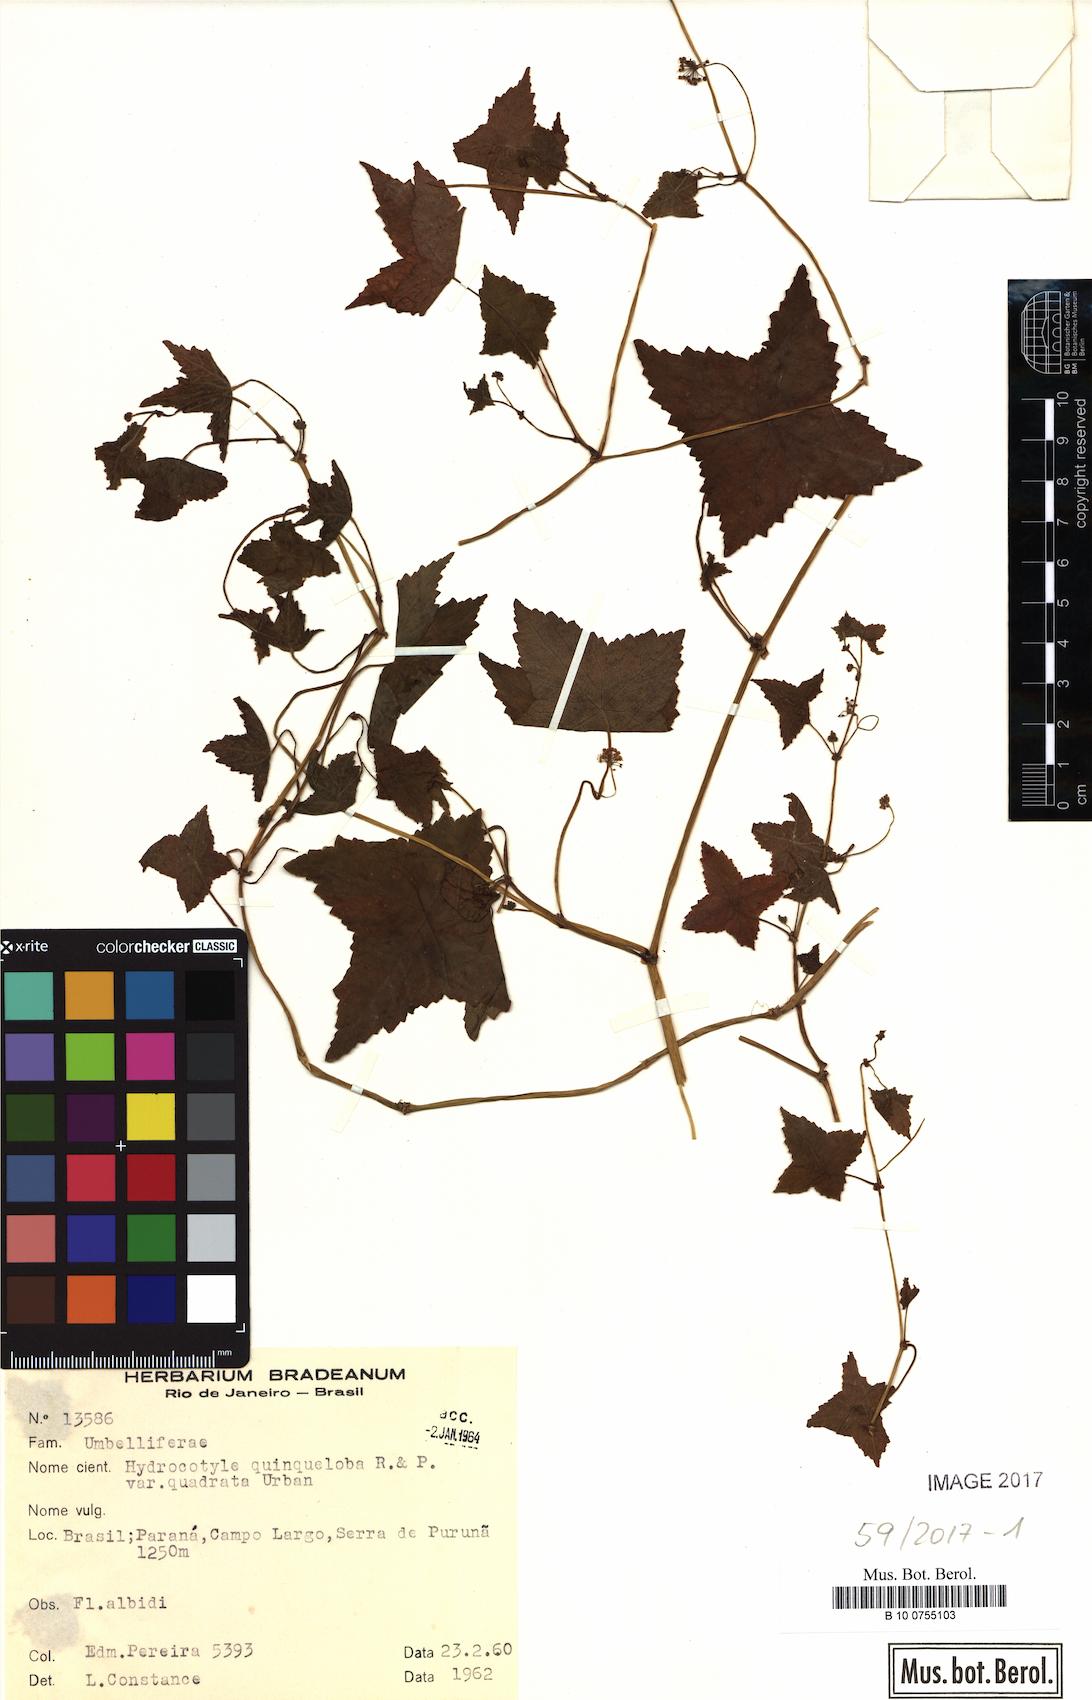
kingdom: Plantae
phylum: Tracheophyta
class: Magnoliopsida
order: Apiales
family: Araliaceae
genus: Hydrocotyle
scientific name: Hydrocotyle quinqueloba
